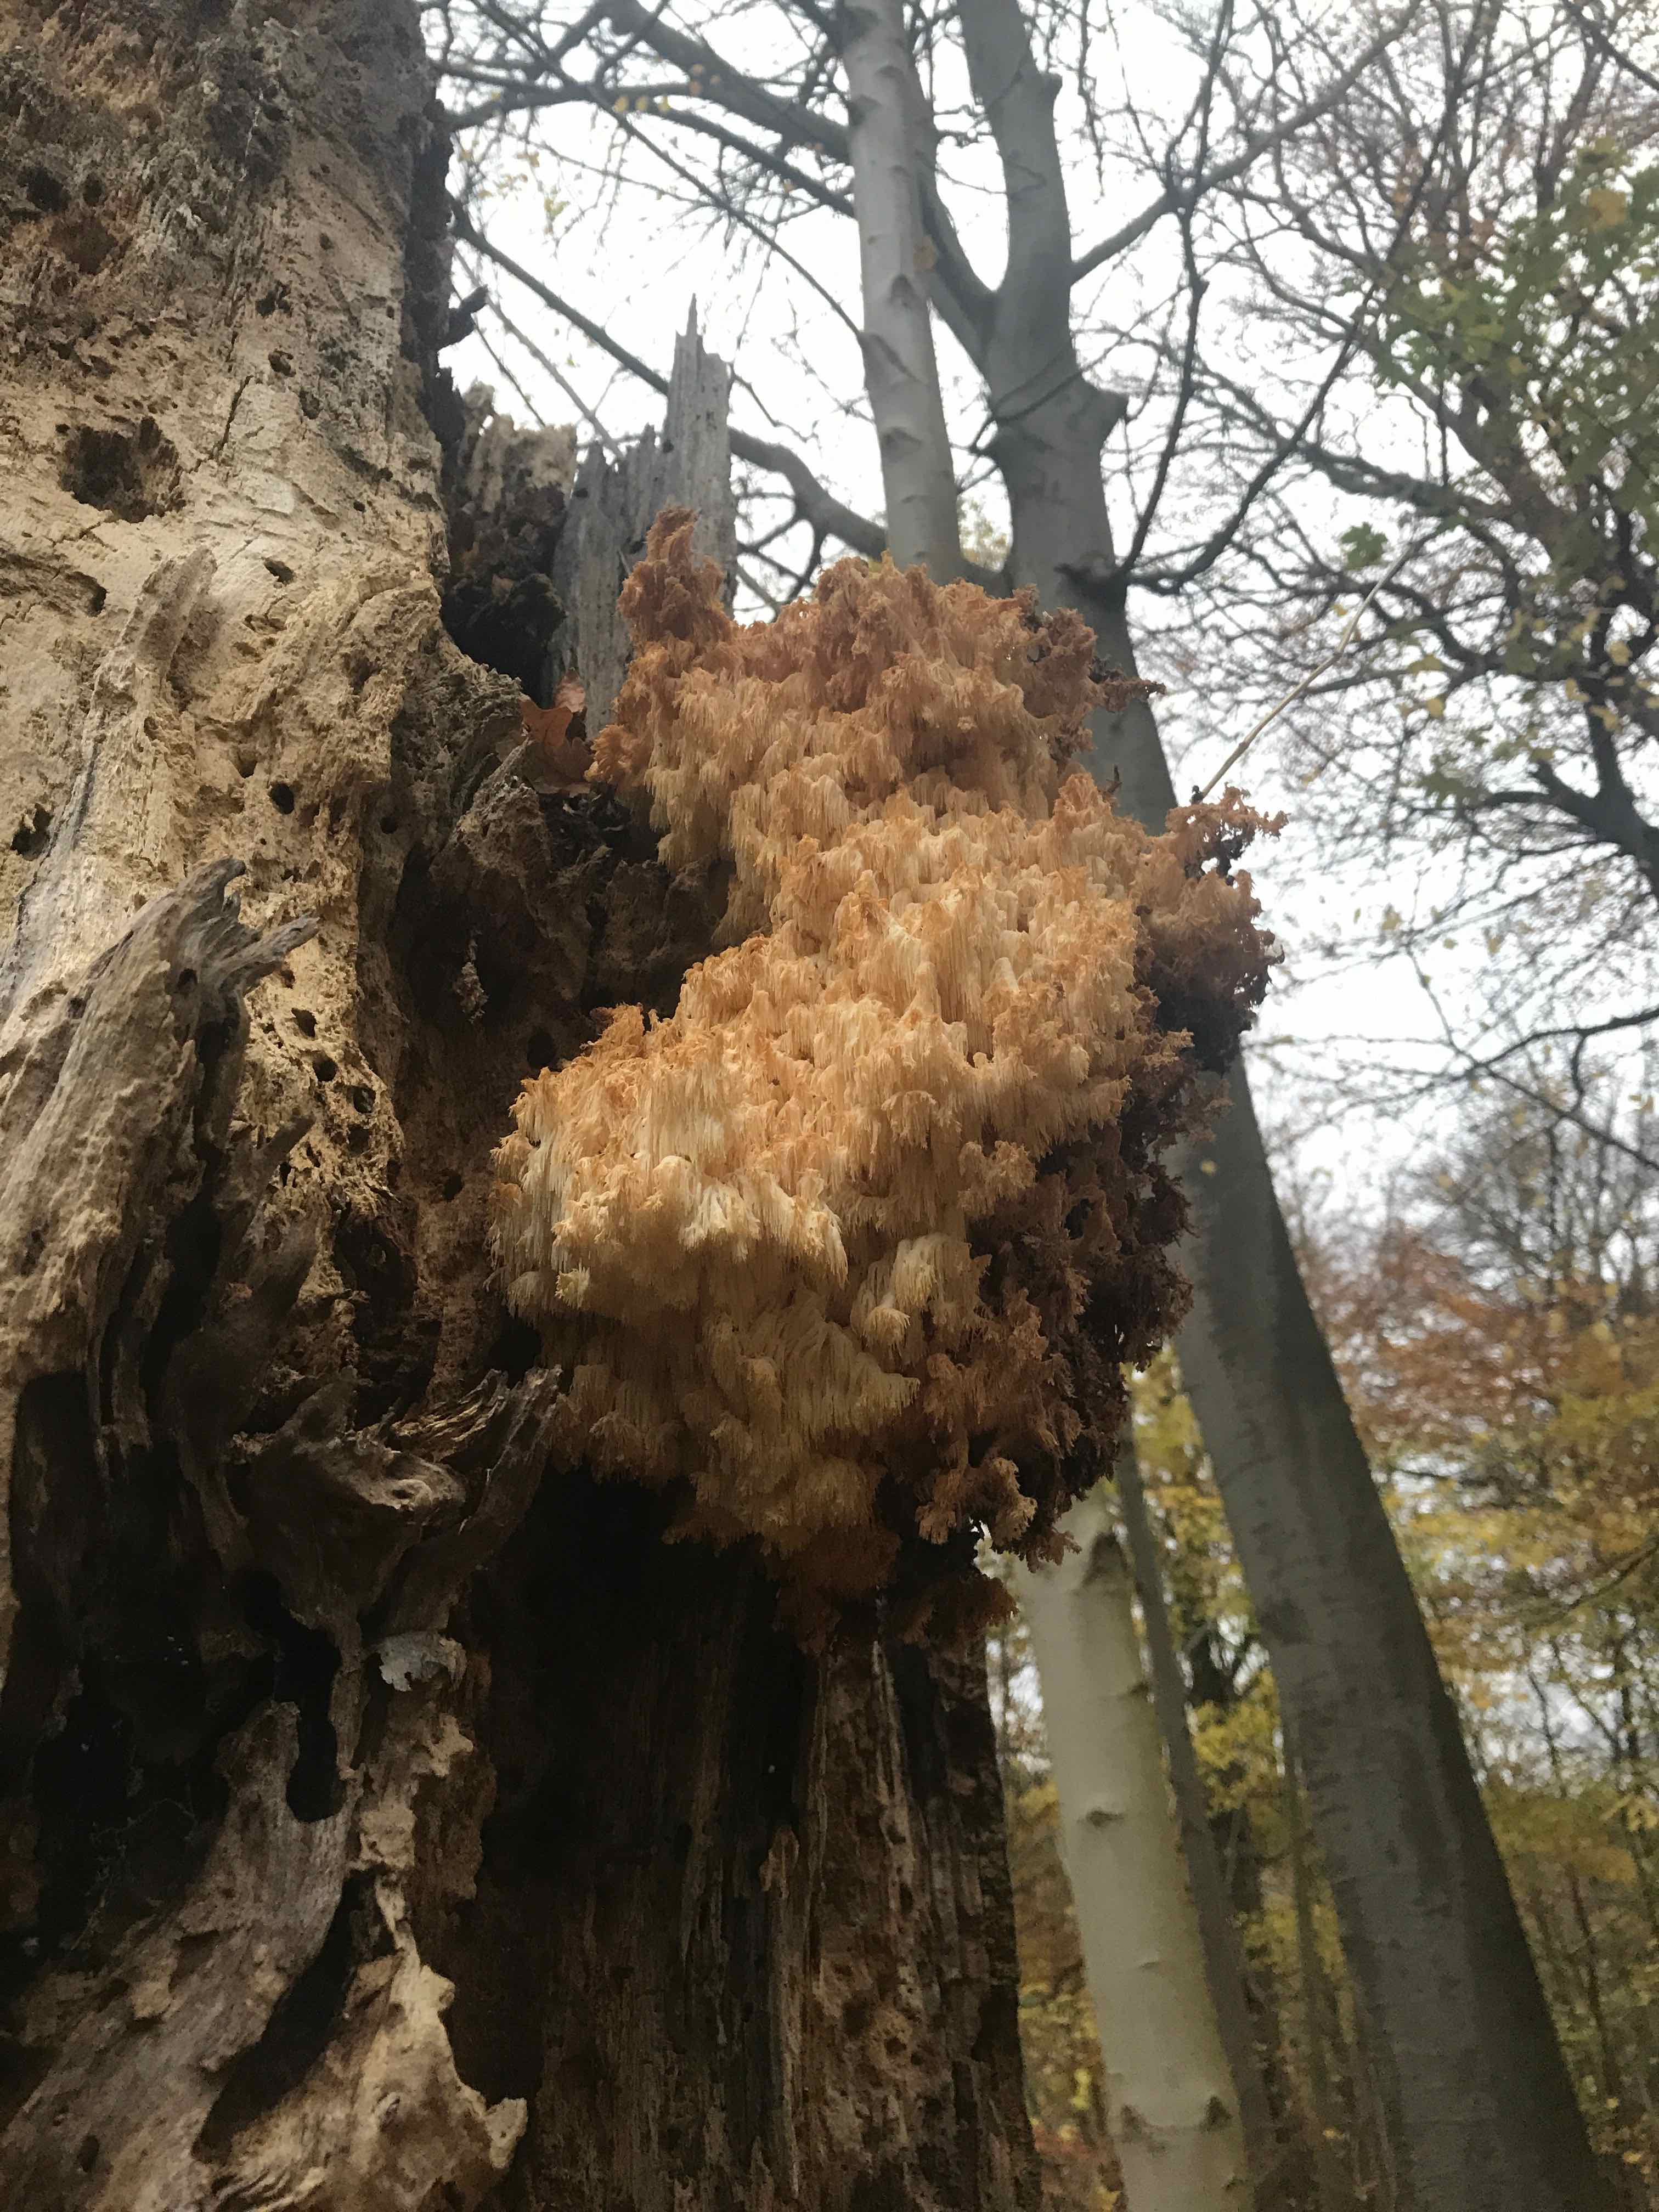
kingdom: Fungi
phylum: Basidiomycota
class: Agaricomycetes
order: Russulales
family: Hericiaceae
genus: Hericium
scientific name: Hericium coralloides
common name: koralpigsvamp
